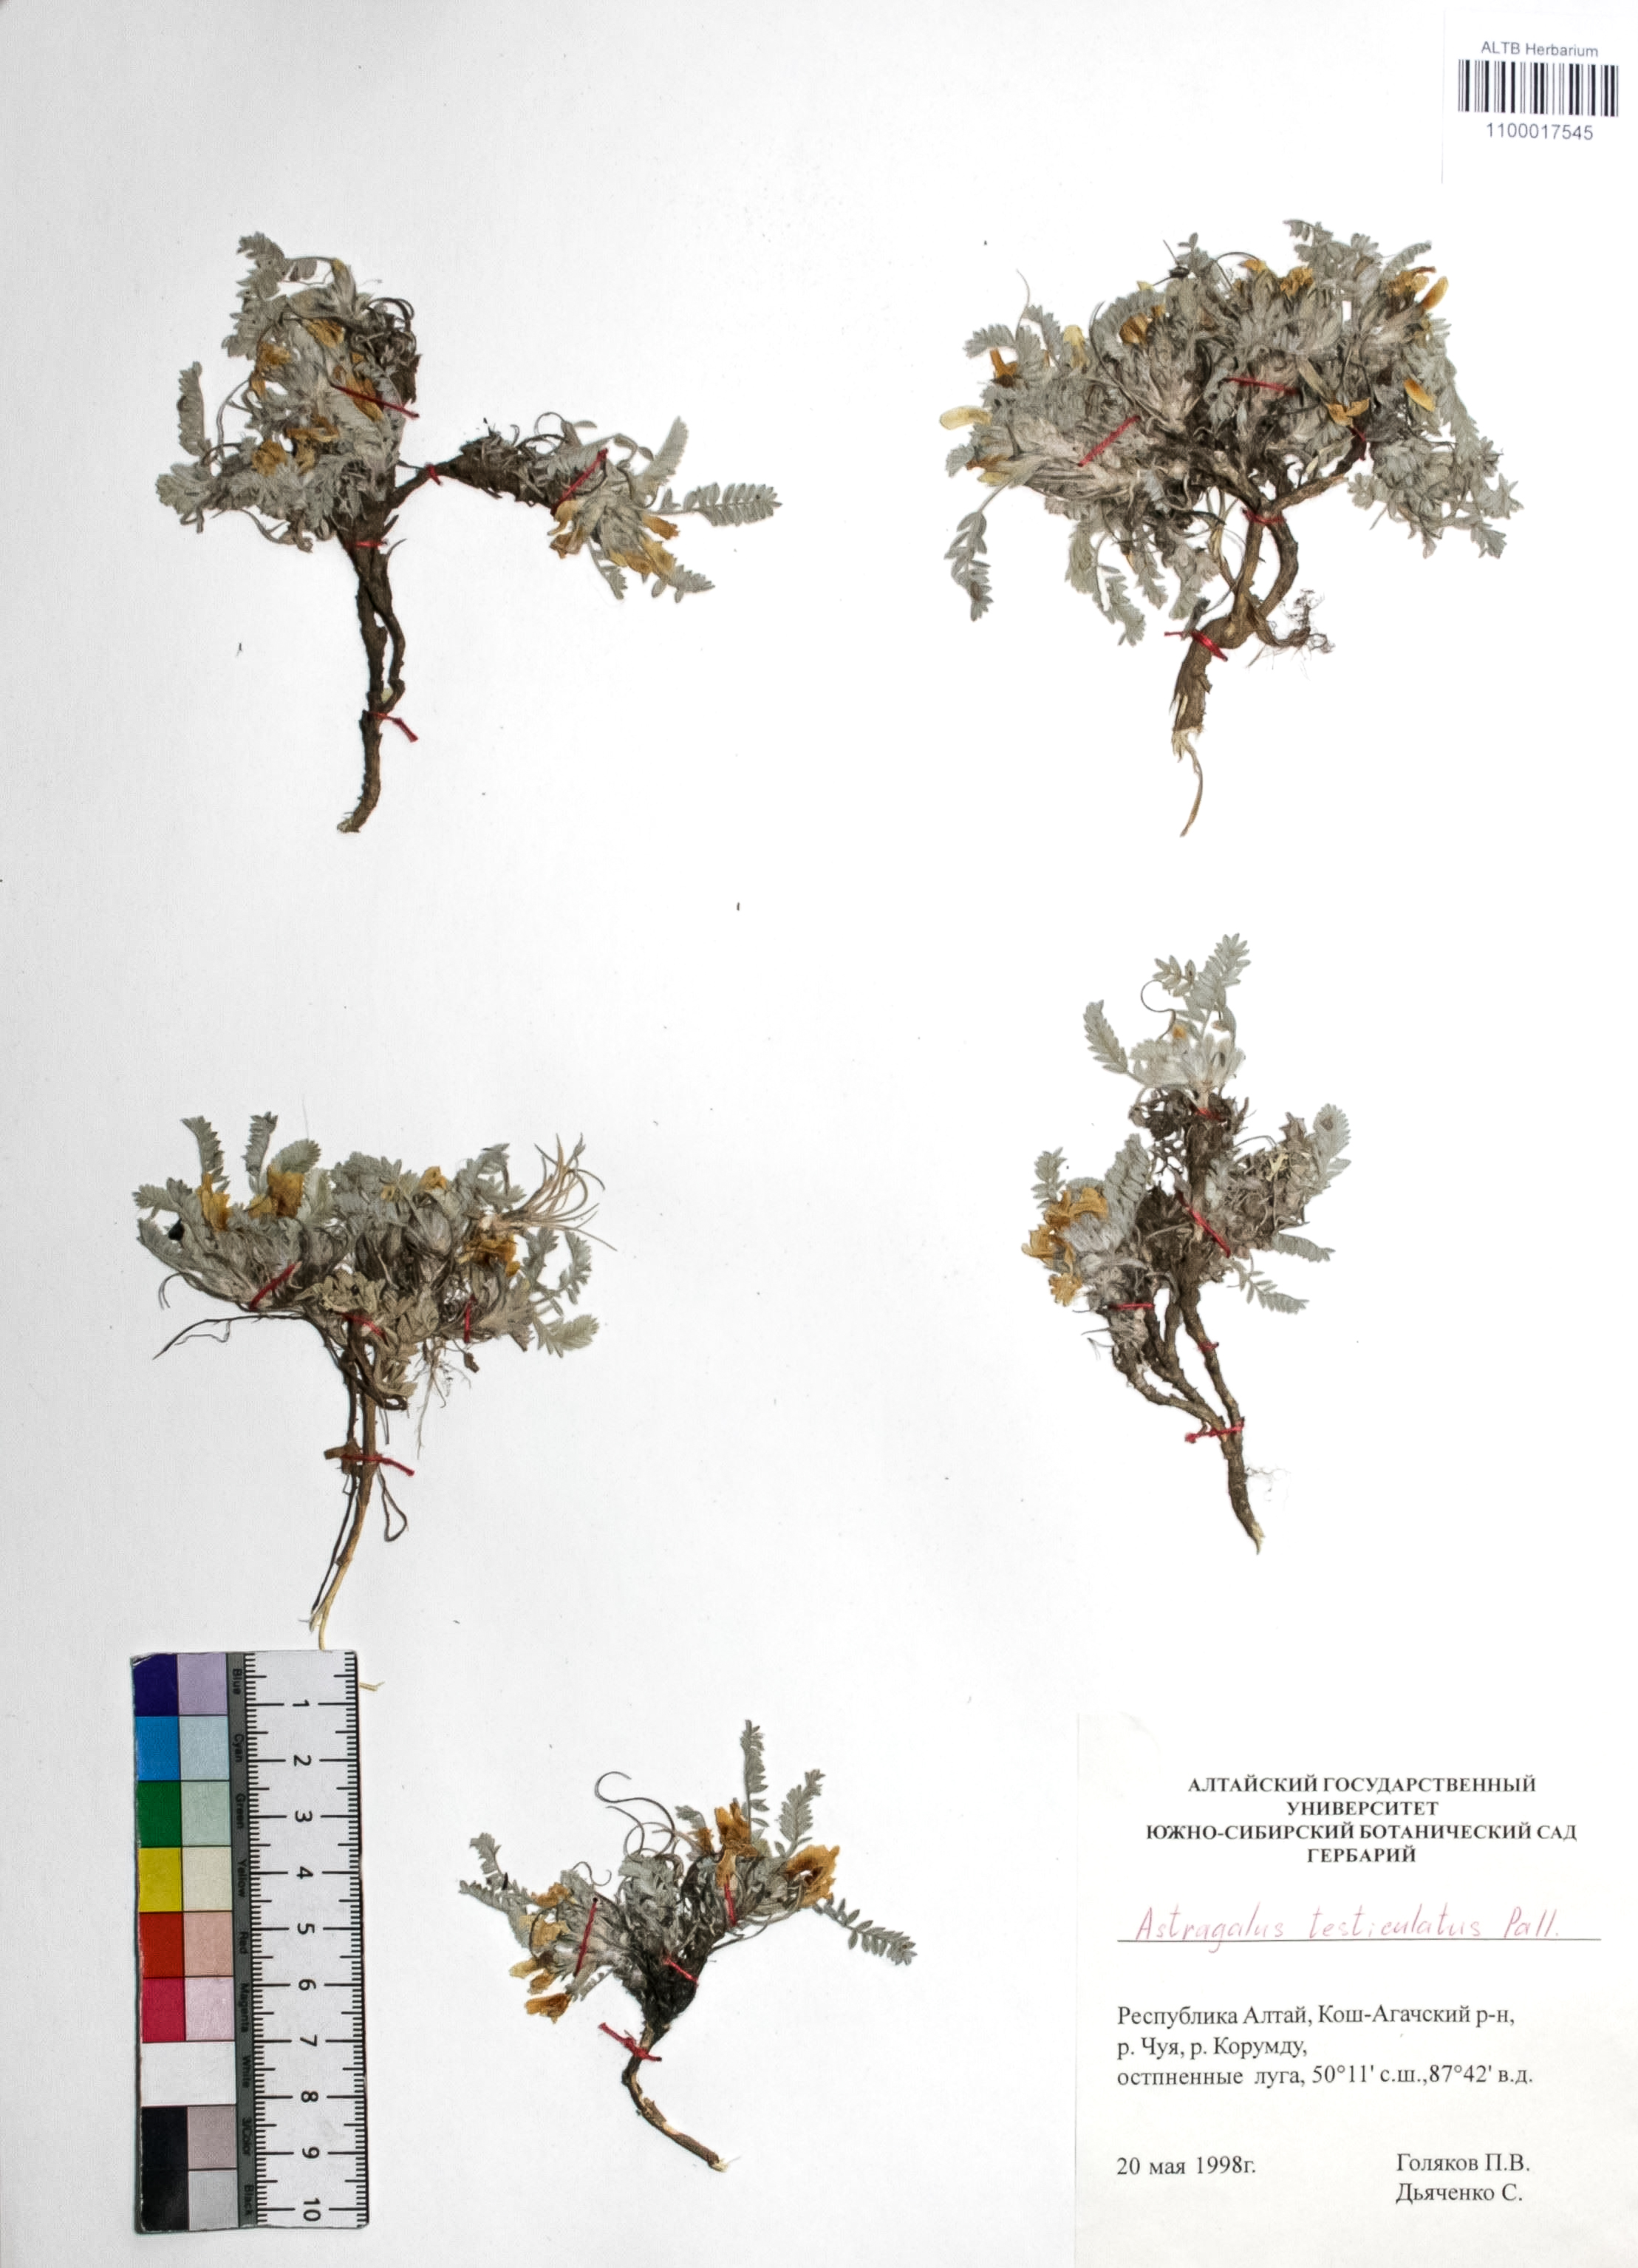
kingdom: Plantae
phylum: Tracheophyta
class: Magnoliopsida
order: Fabales
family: Fabaceae
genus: Astragalus
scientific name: Astragalus testiculatus
